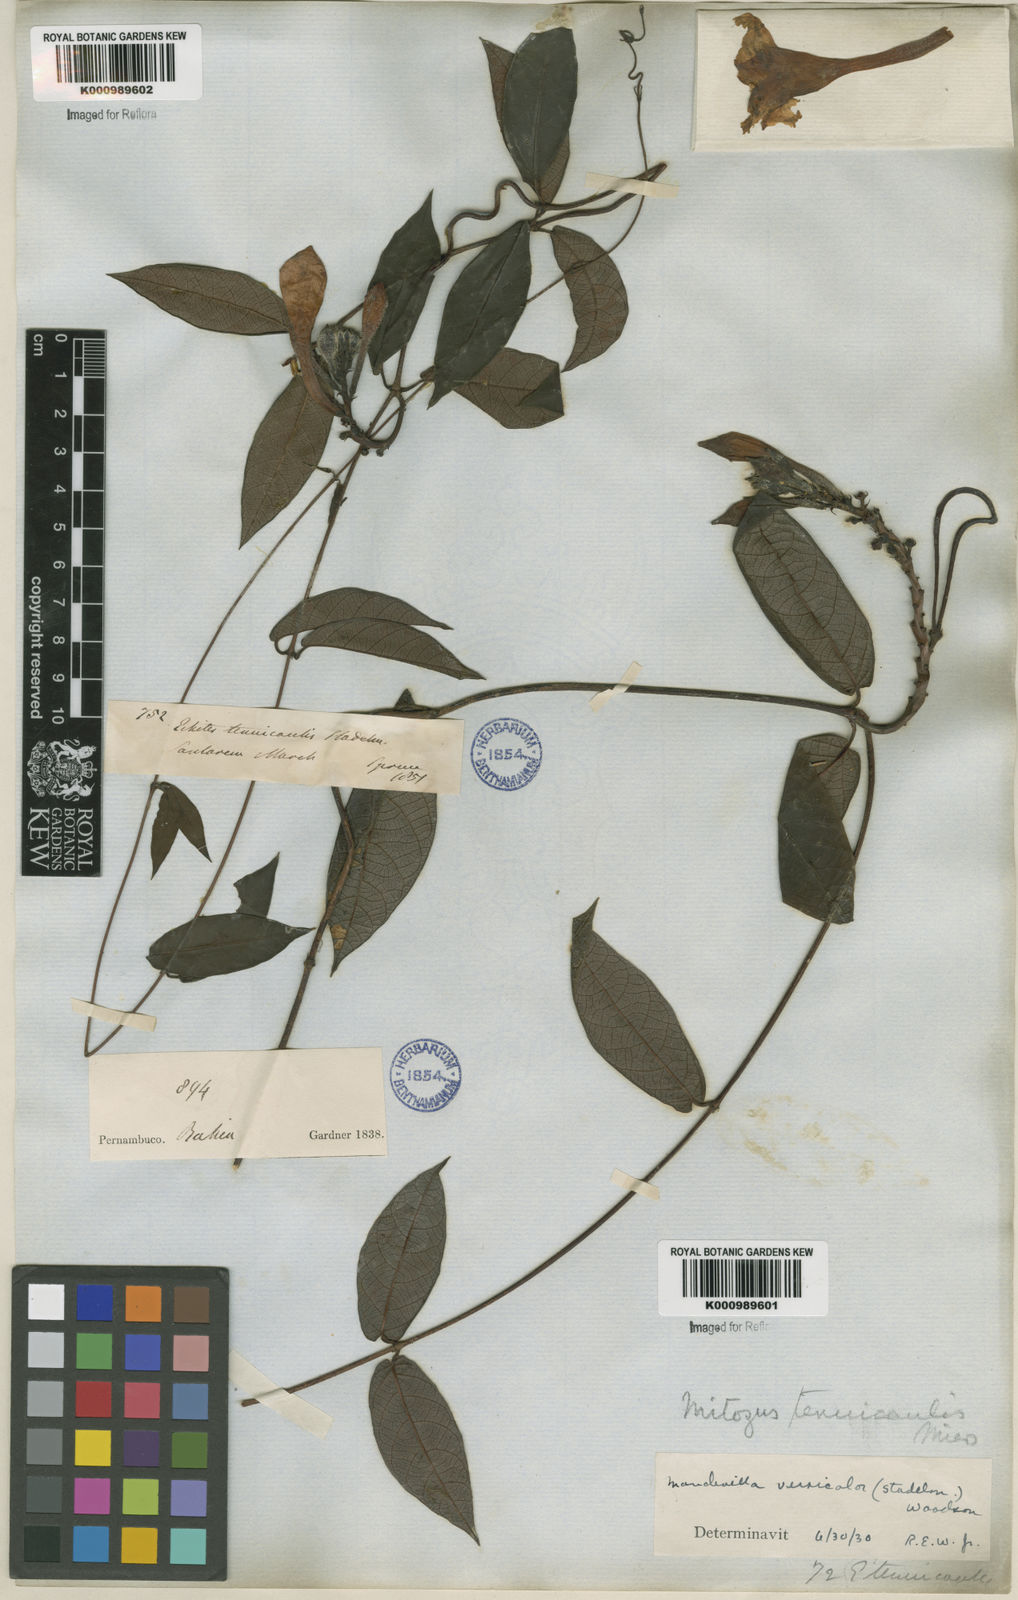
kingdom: Plantae
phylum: Tracheophyta
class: Magnoliopsida
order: Gentianales
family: Apocynaceae
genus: Mandevilla
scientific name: Mandevilla scabra
